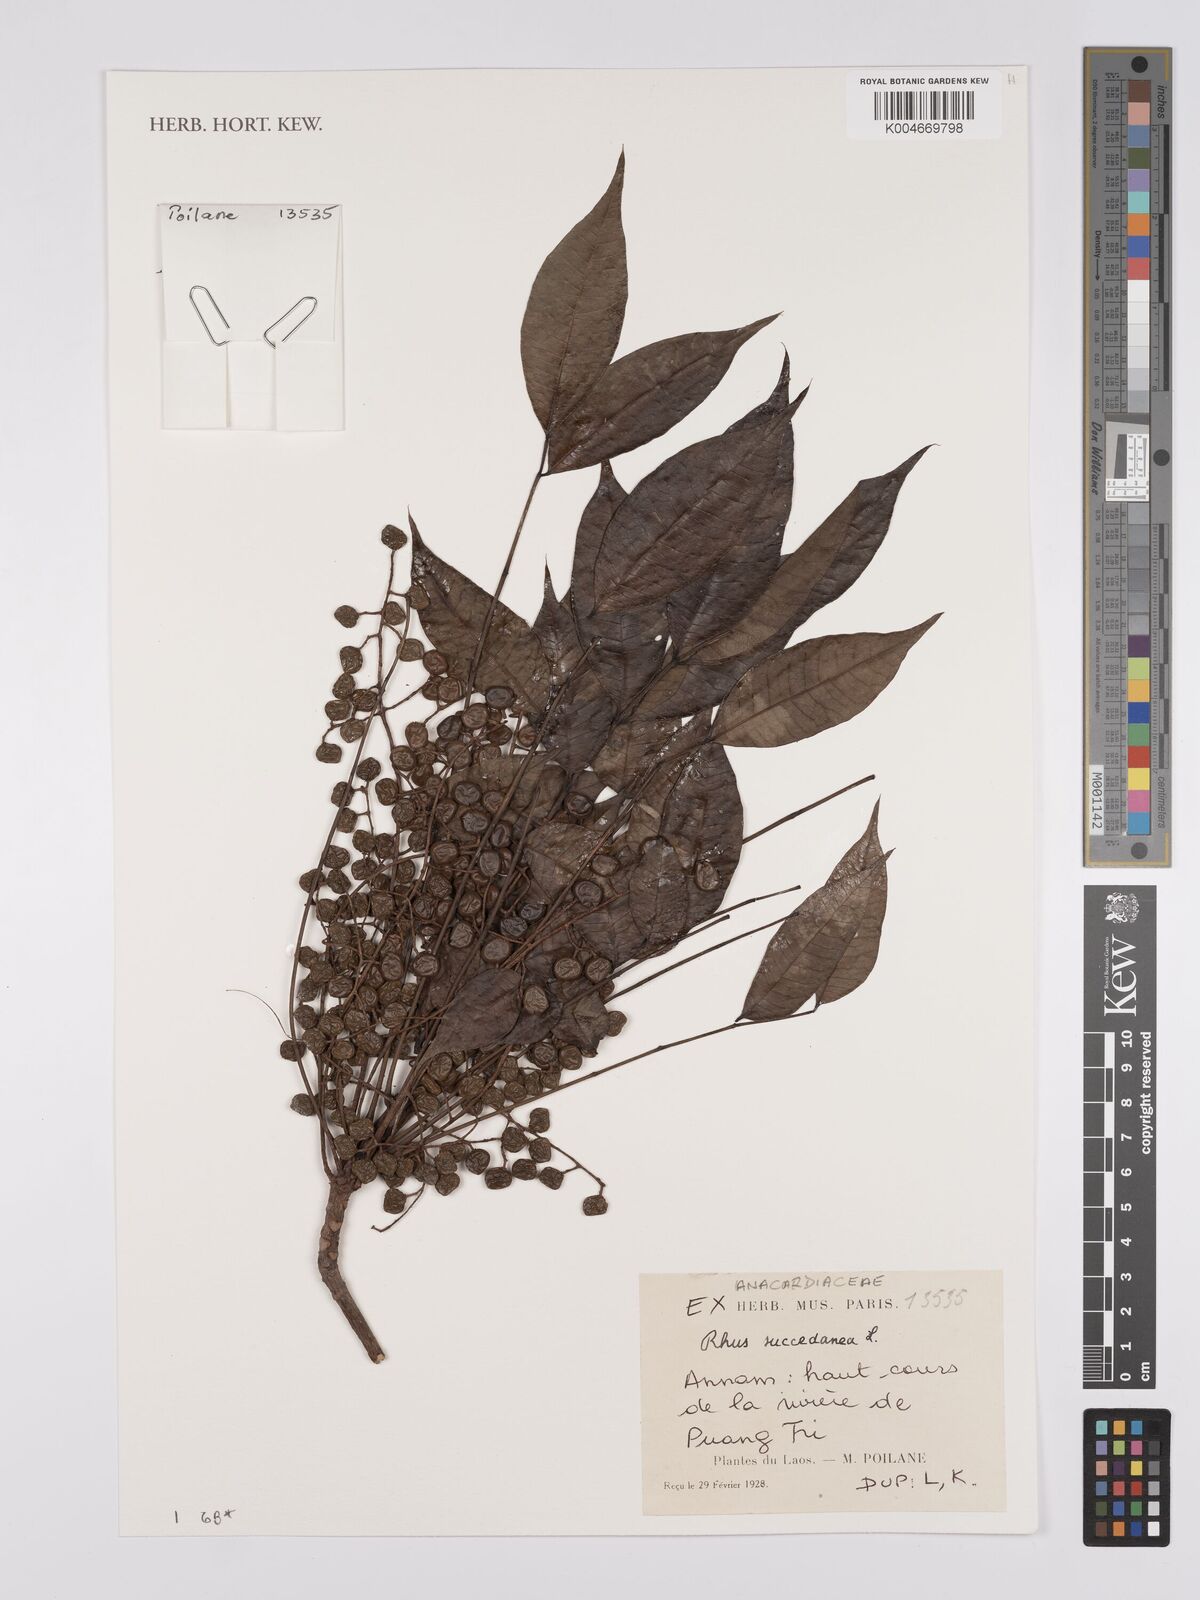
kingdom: Plantae
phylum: Tracheophyta
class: Magnoliopsida
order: Sapindales
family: Anacardiaceae
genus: Toxicodendron
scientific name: Toxicodendron succedaneum
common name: Wax tree
